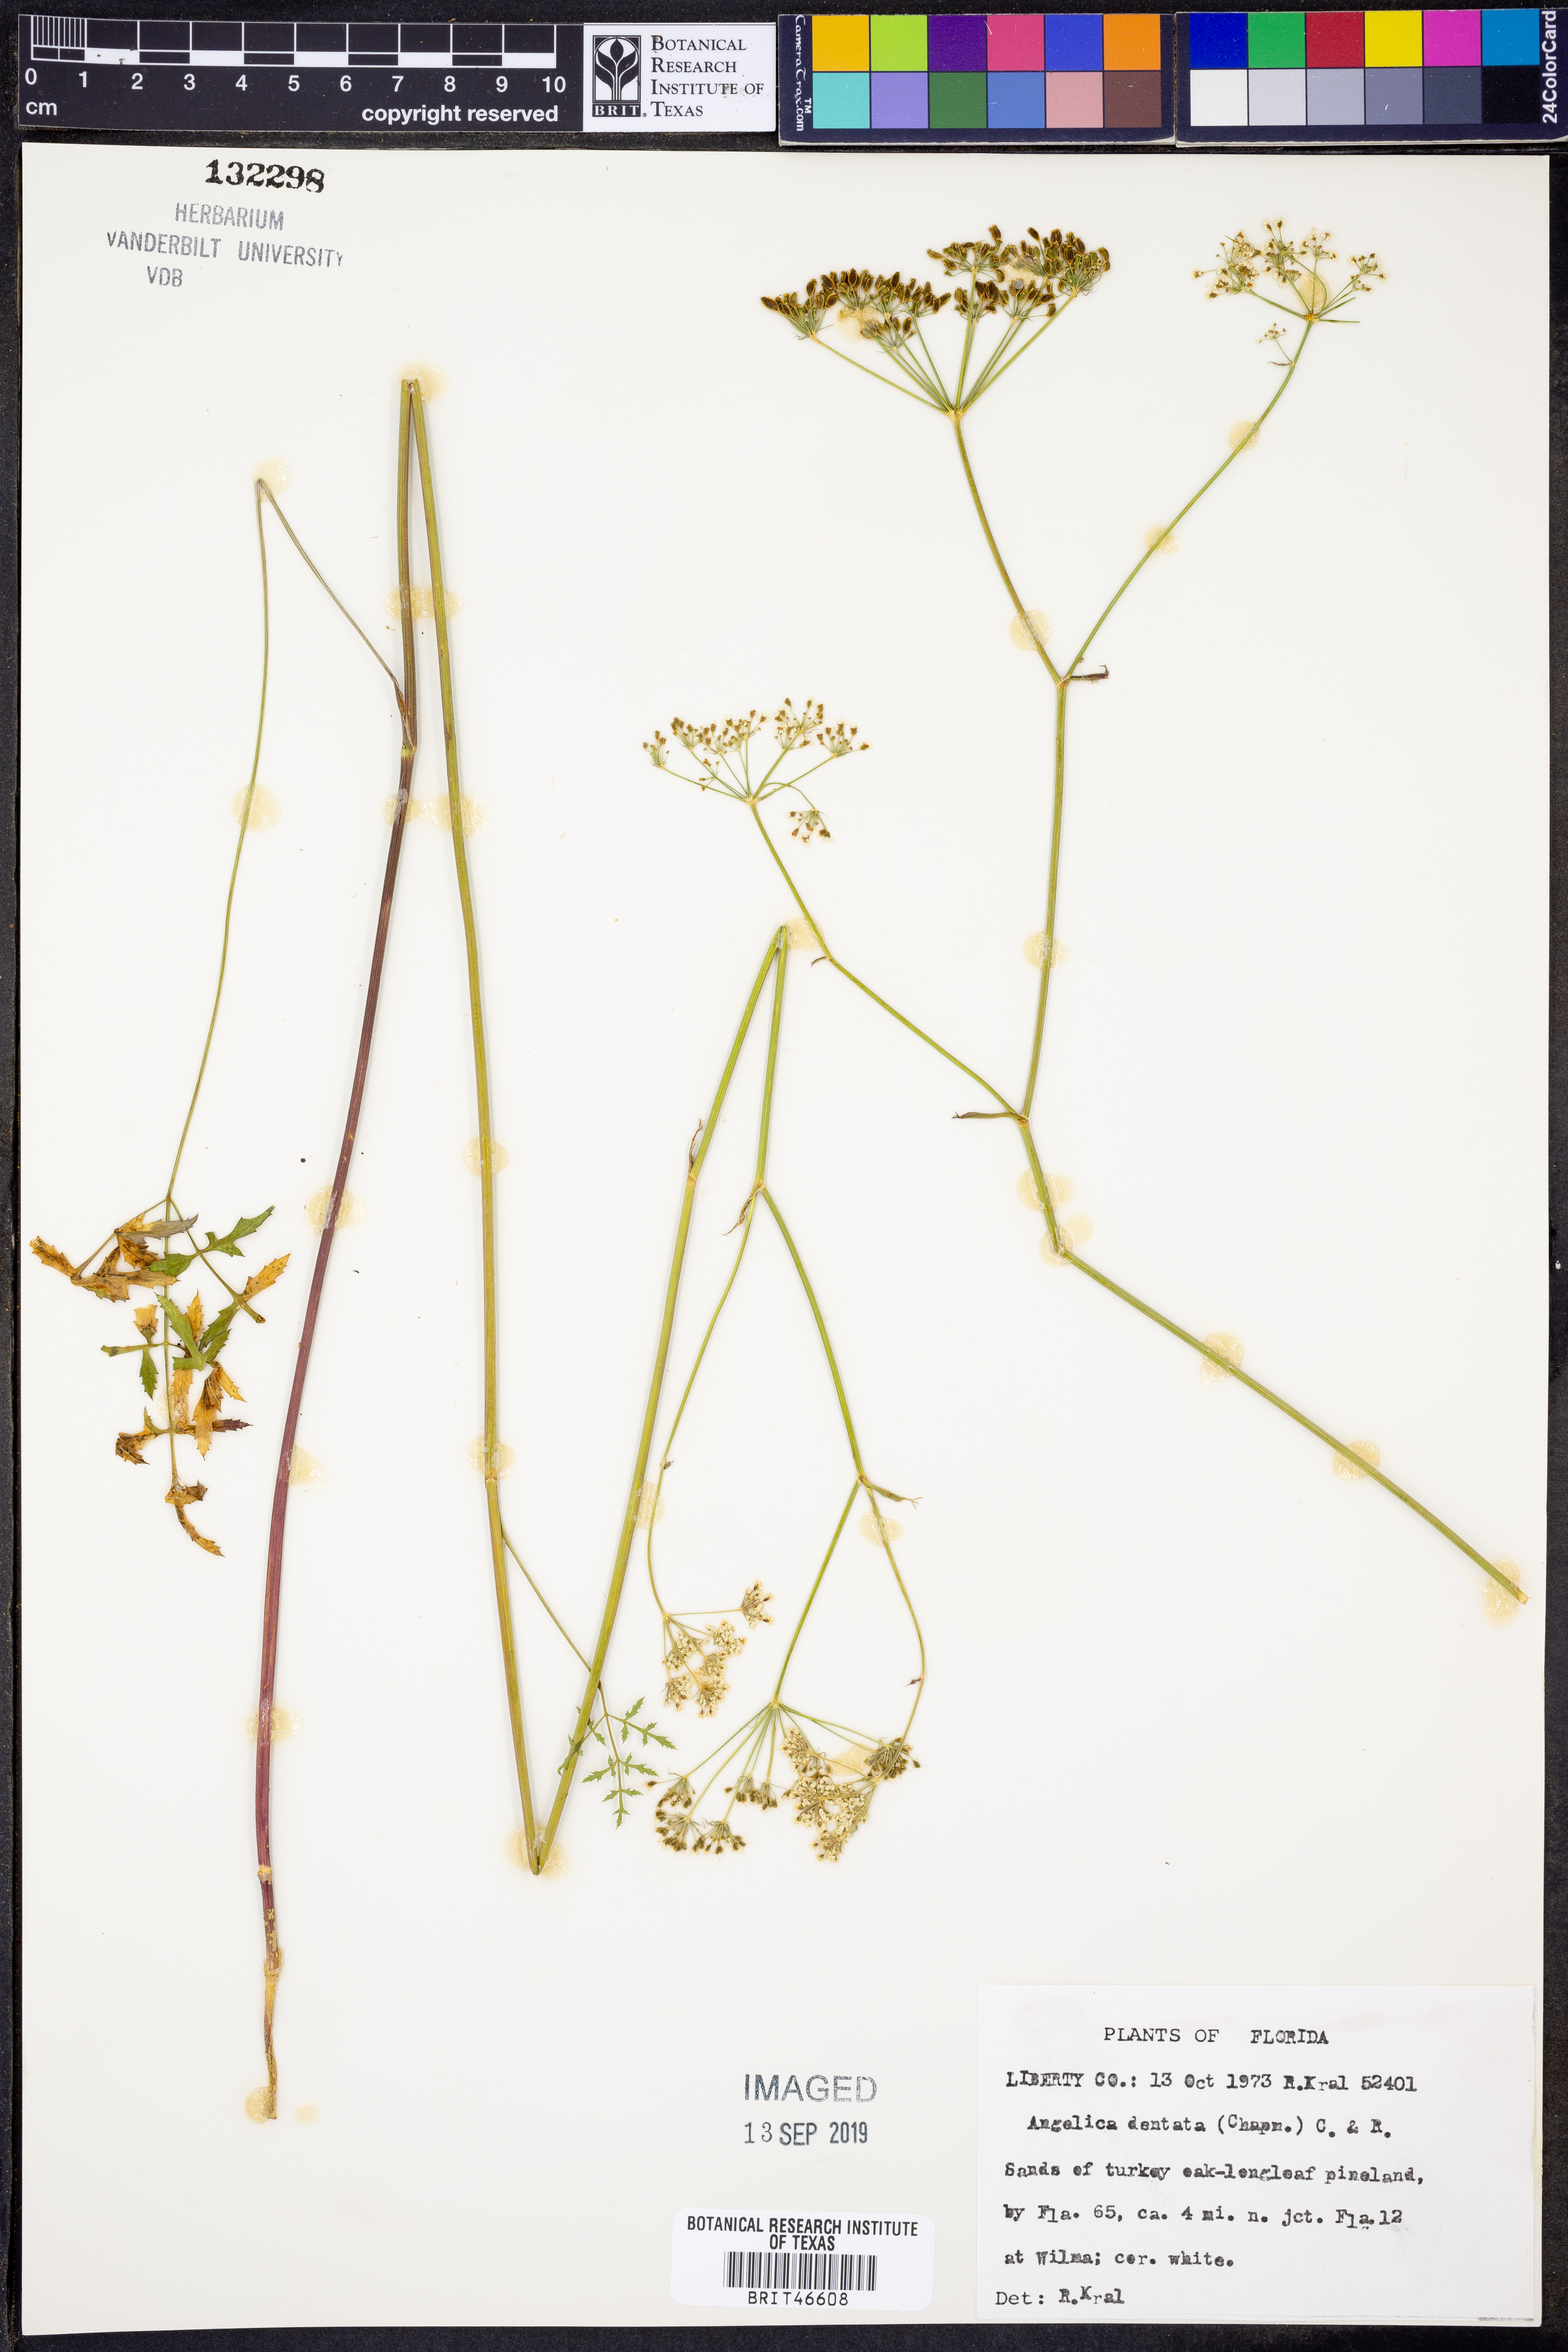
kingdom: Plantae
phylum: Tracheophyta
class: Magnoliopsida
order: Apiales
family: Apiaceae
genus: Angelica
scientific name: Angelica venenosa
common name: Hairy angelica
